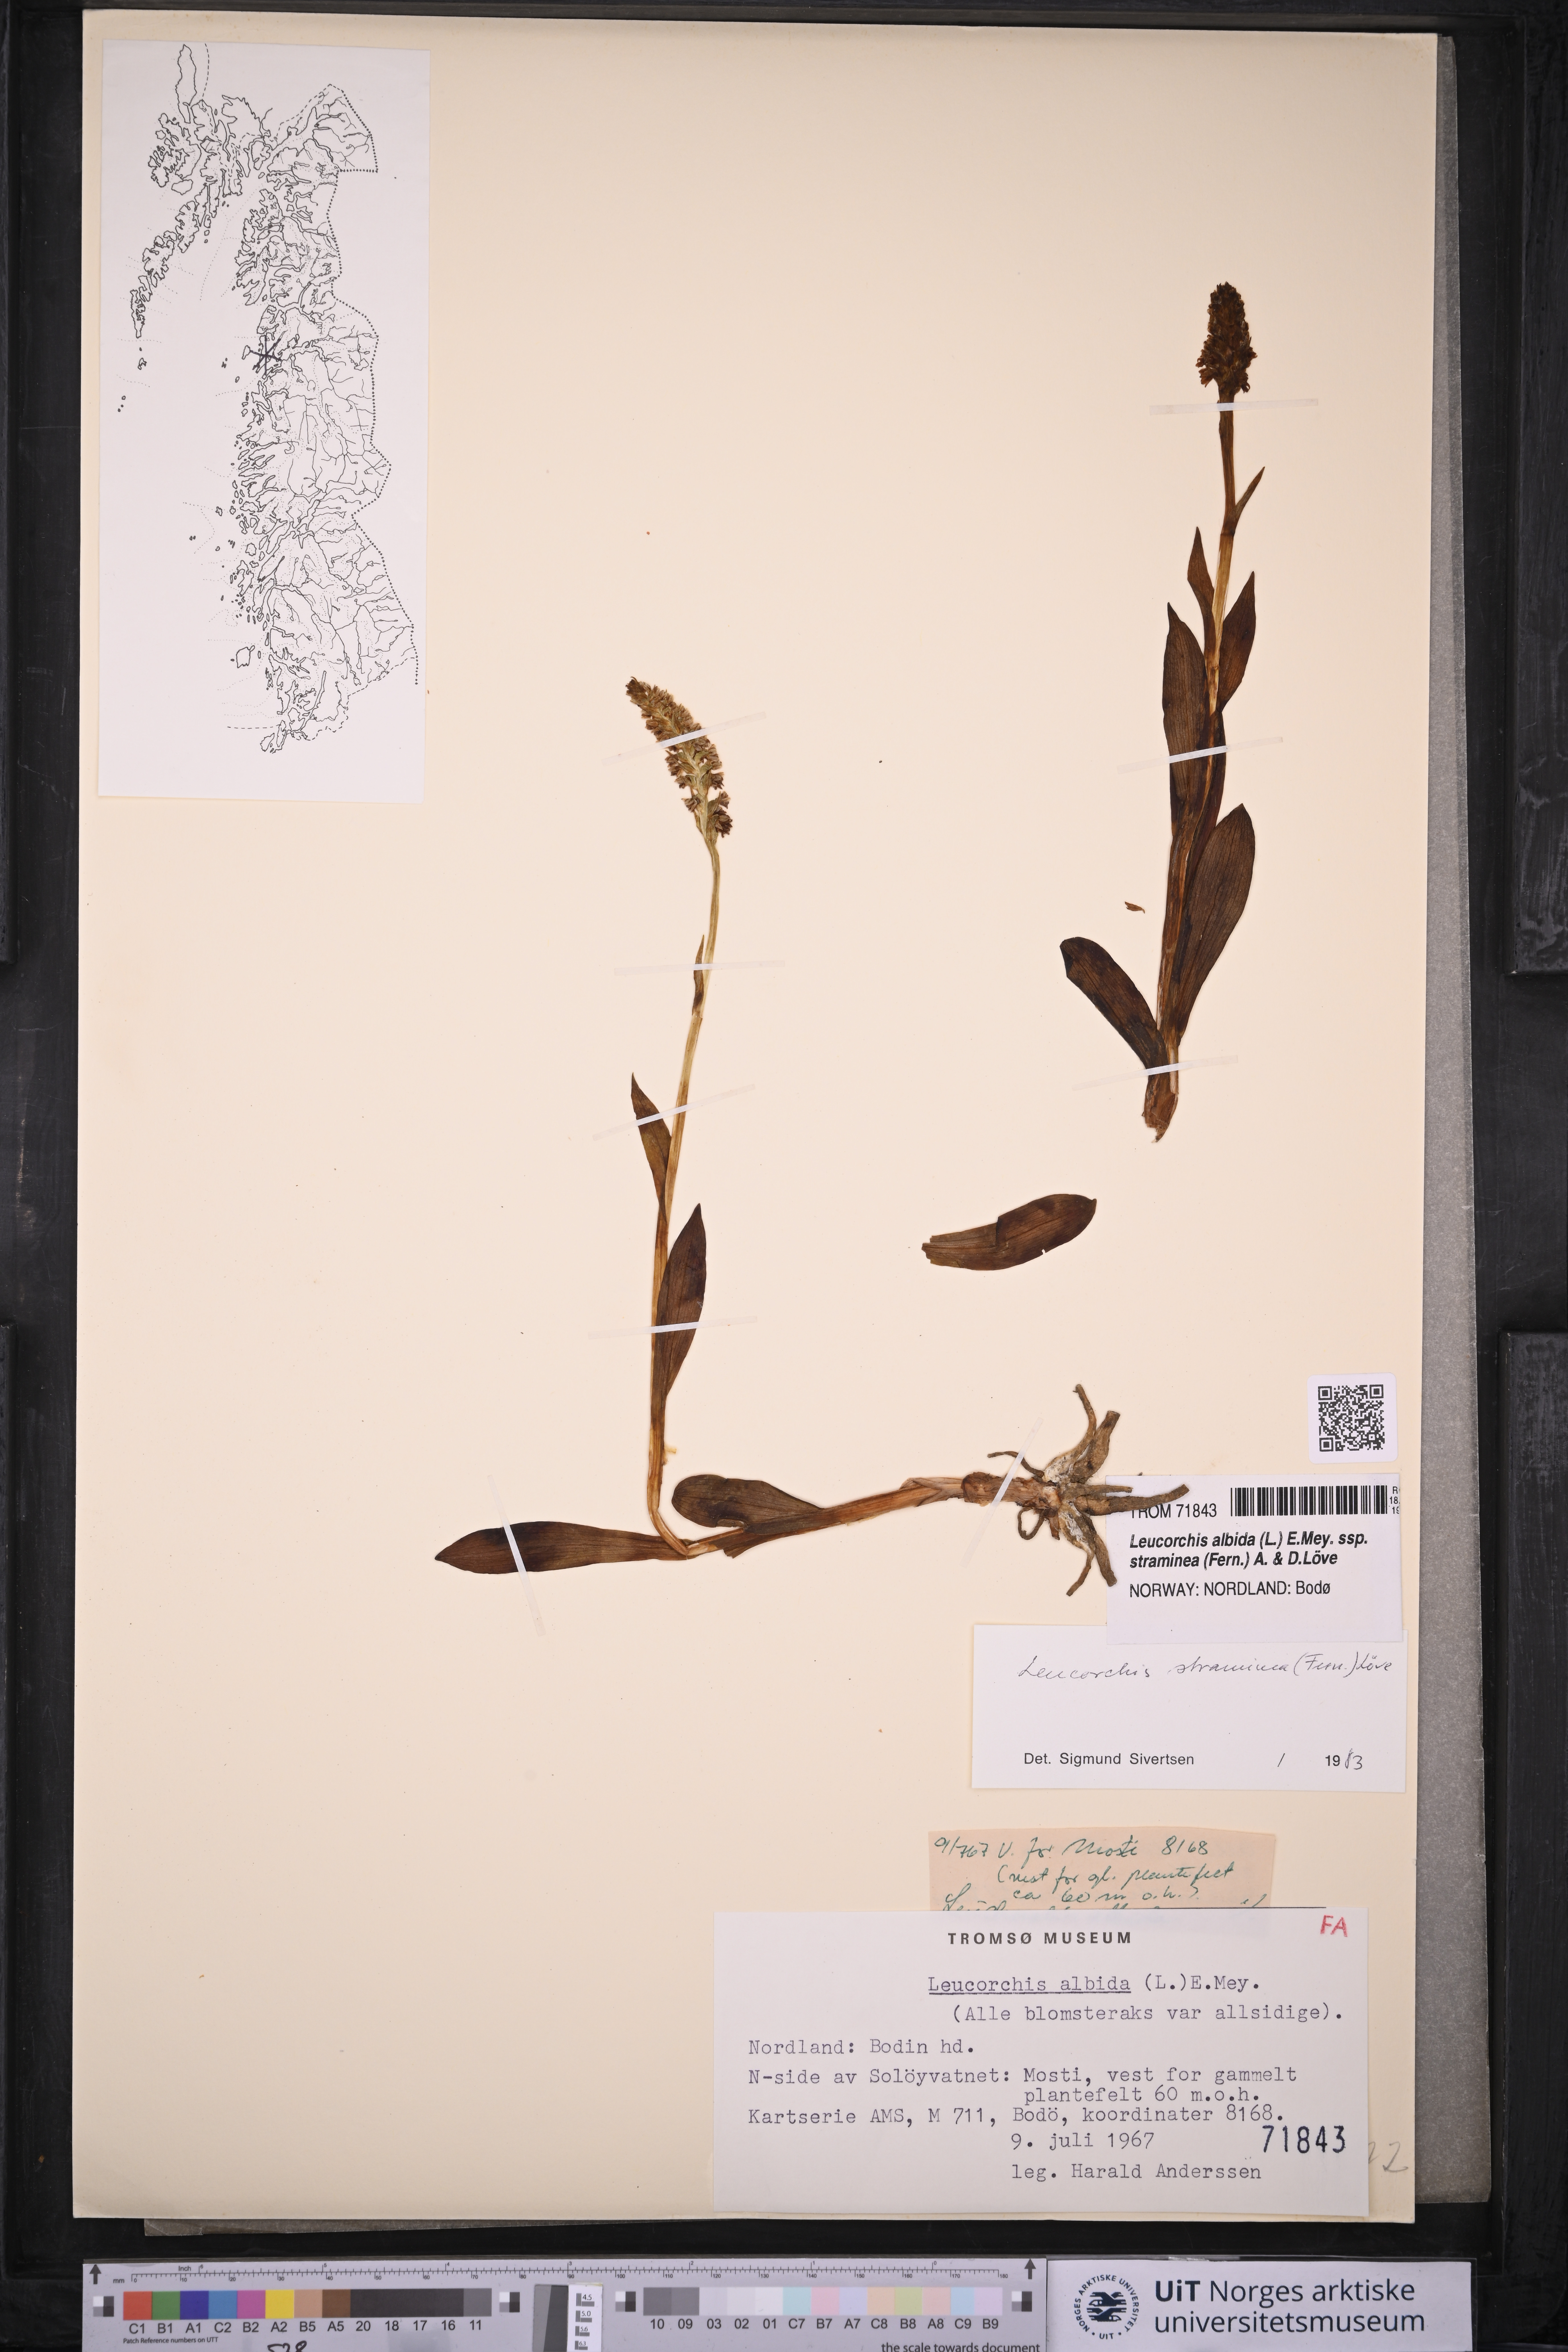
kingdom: Plantae
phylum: Tracheophyta
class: Liliopsida
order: Asparagales
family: Orchidaceae
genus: Pseudorchis
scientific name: Pseudorchis straminea
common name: Vanilla-scented bog orchid
